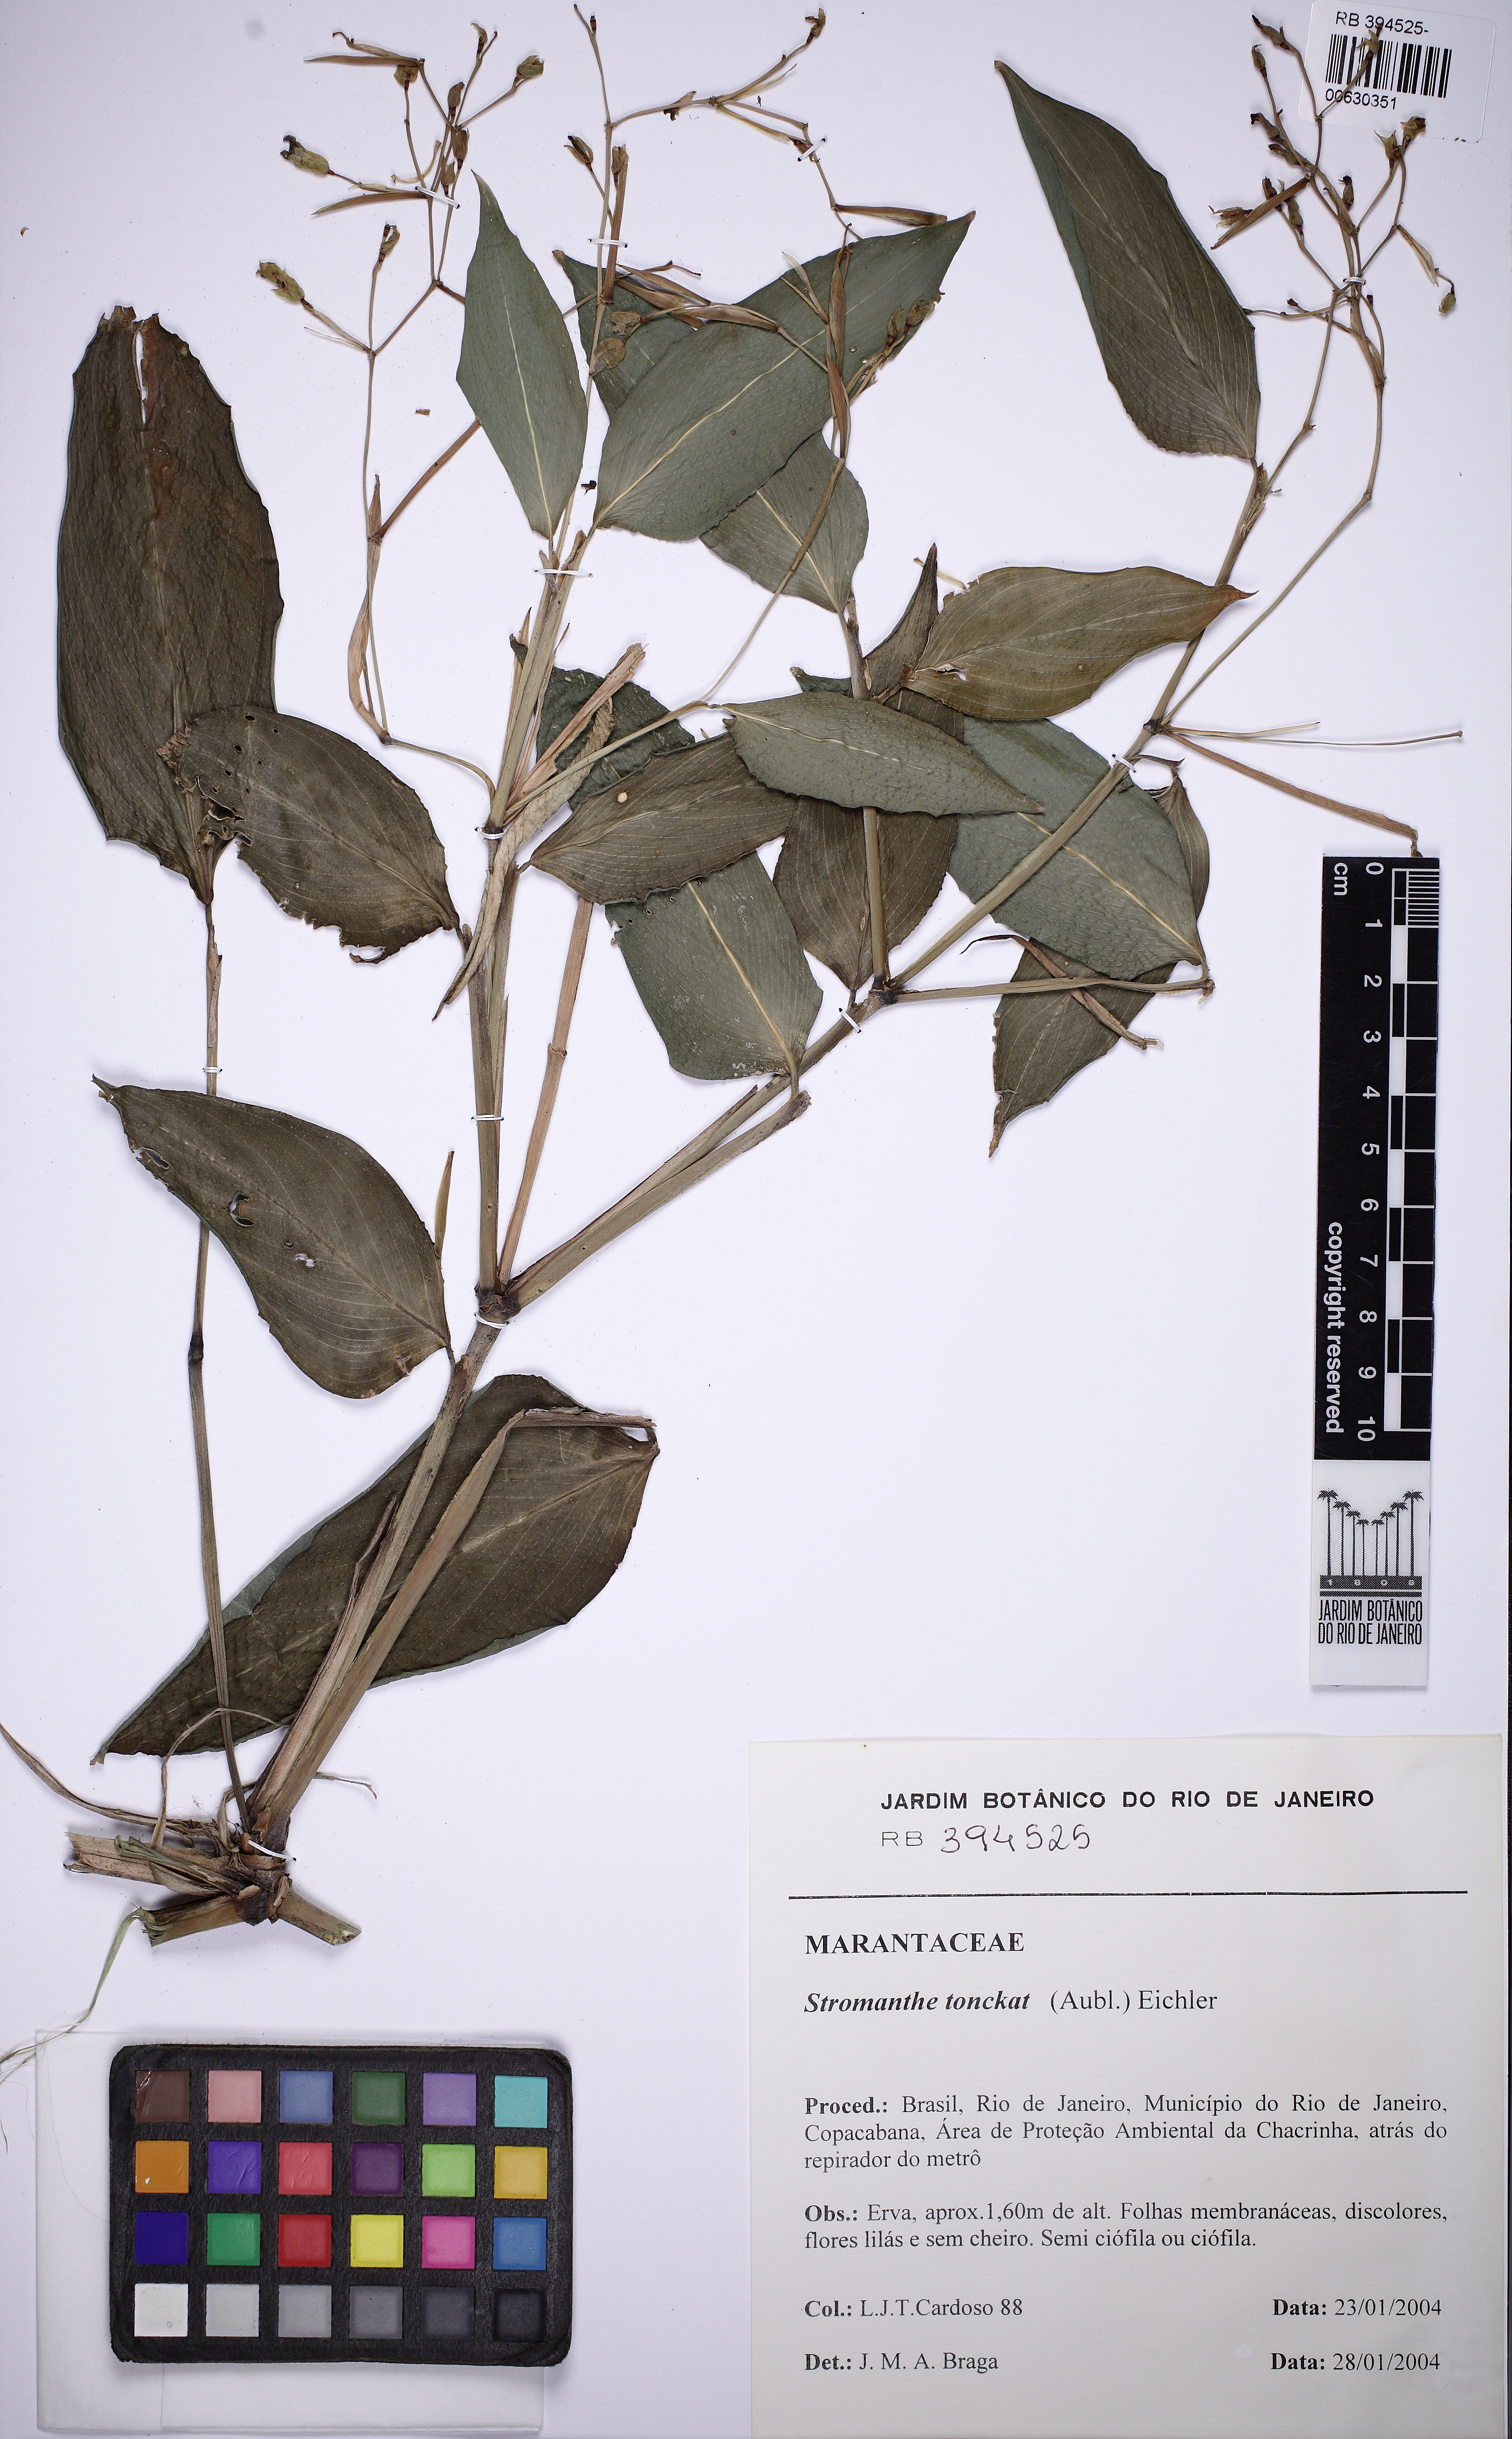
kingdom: Plantae
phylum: Tracheophyta
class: Liliopsida
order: Zingiberales
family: Marantaceae
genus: Stromanthe
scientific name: Stromanthe tonckat
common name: Stromanthe
